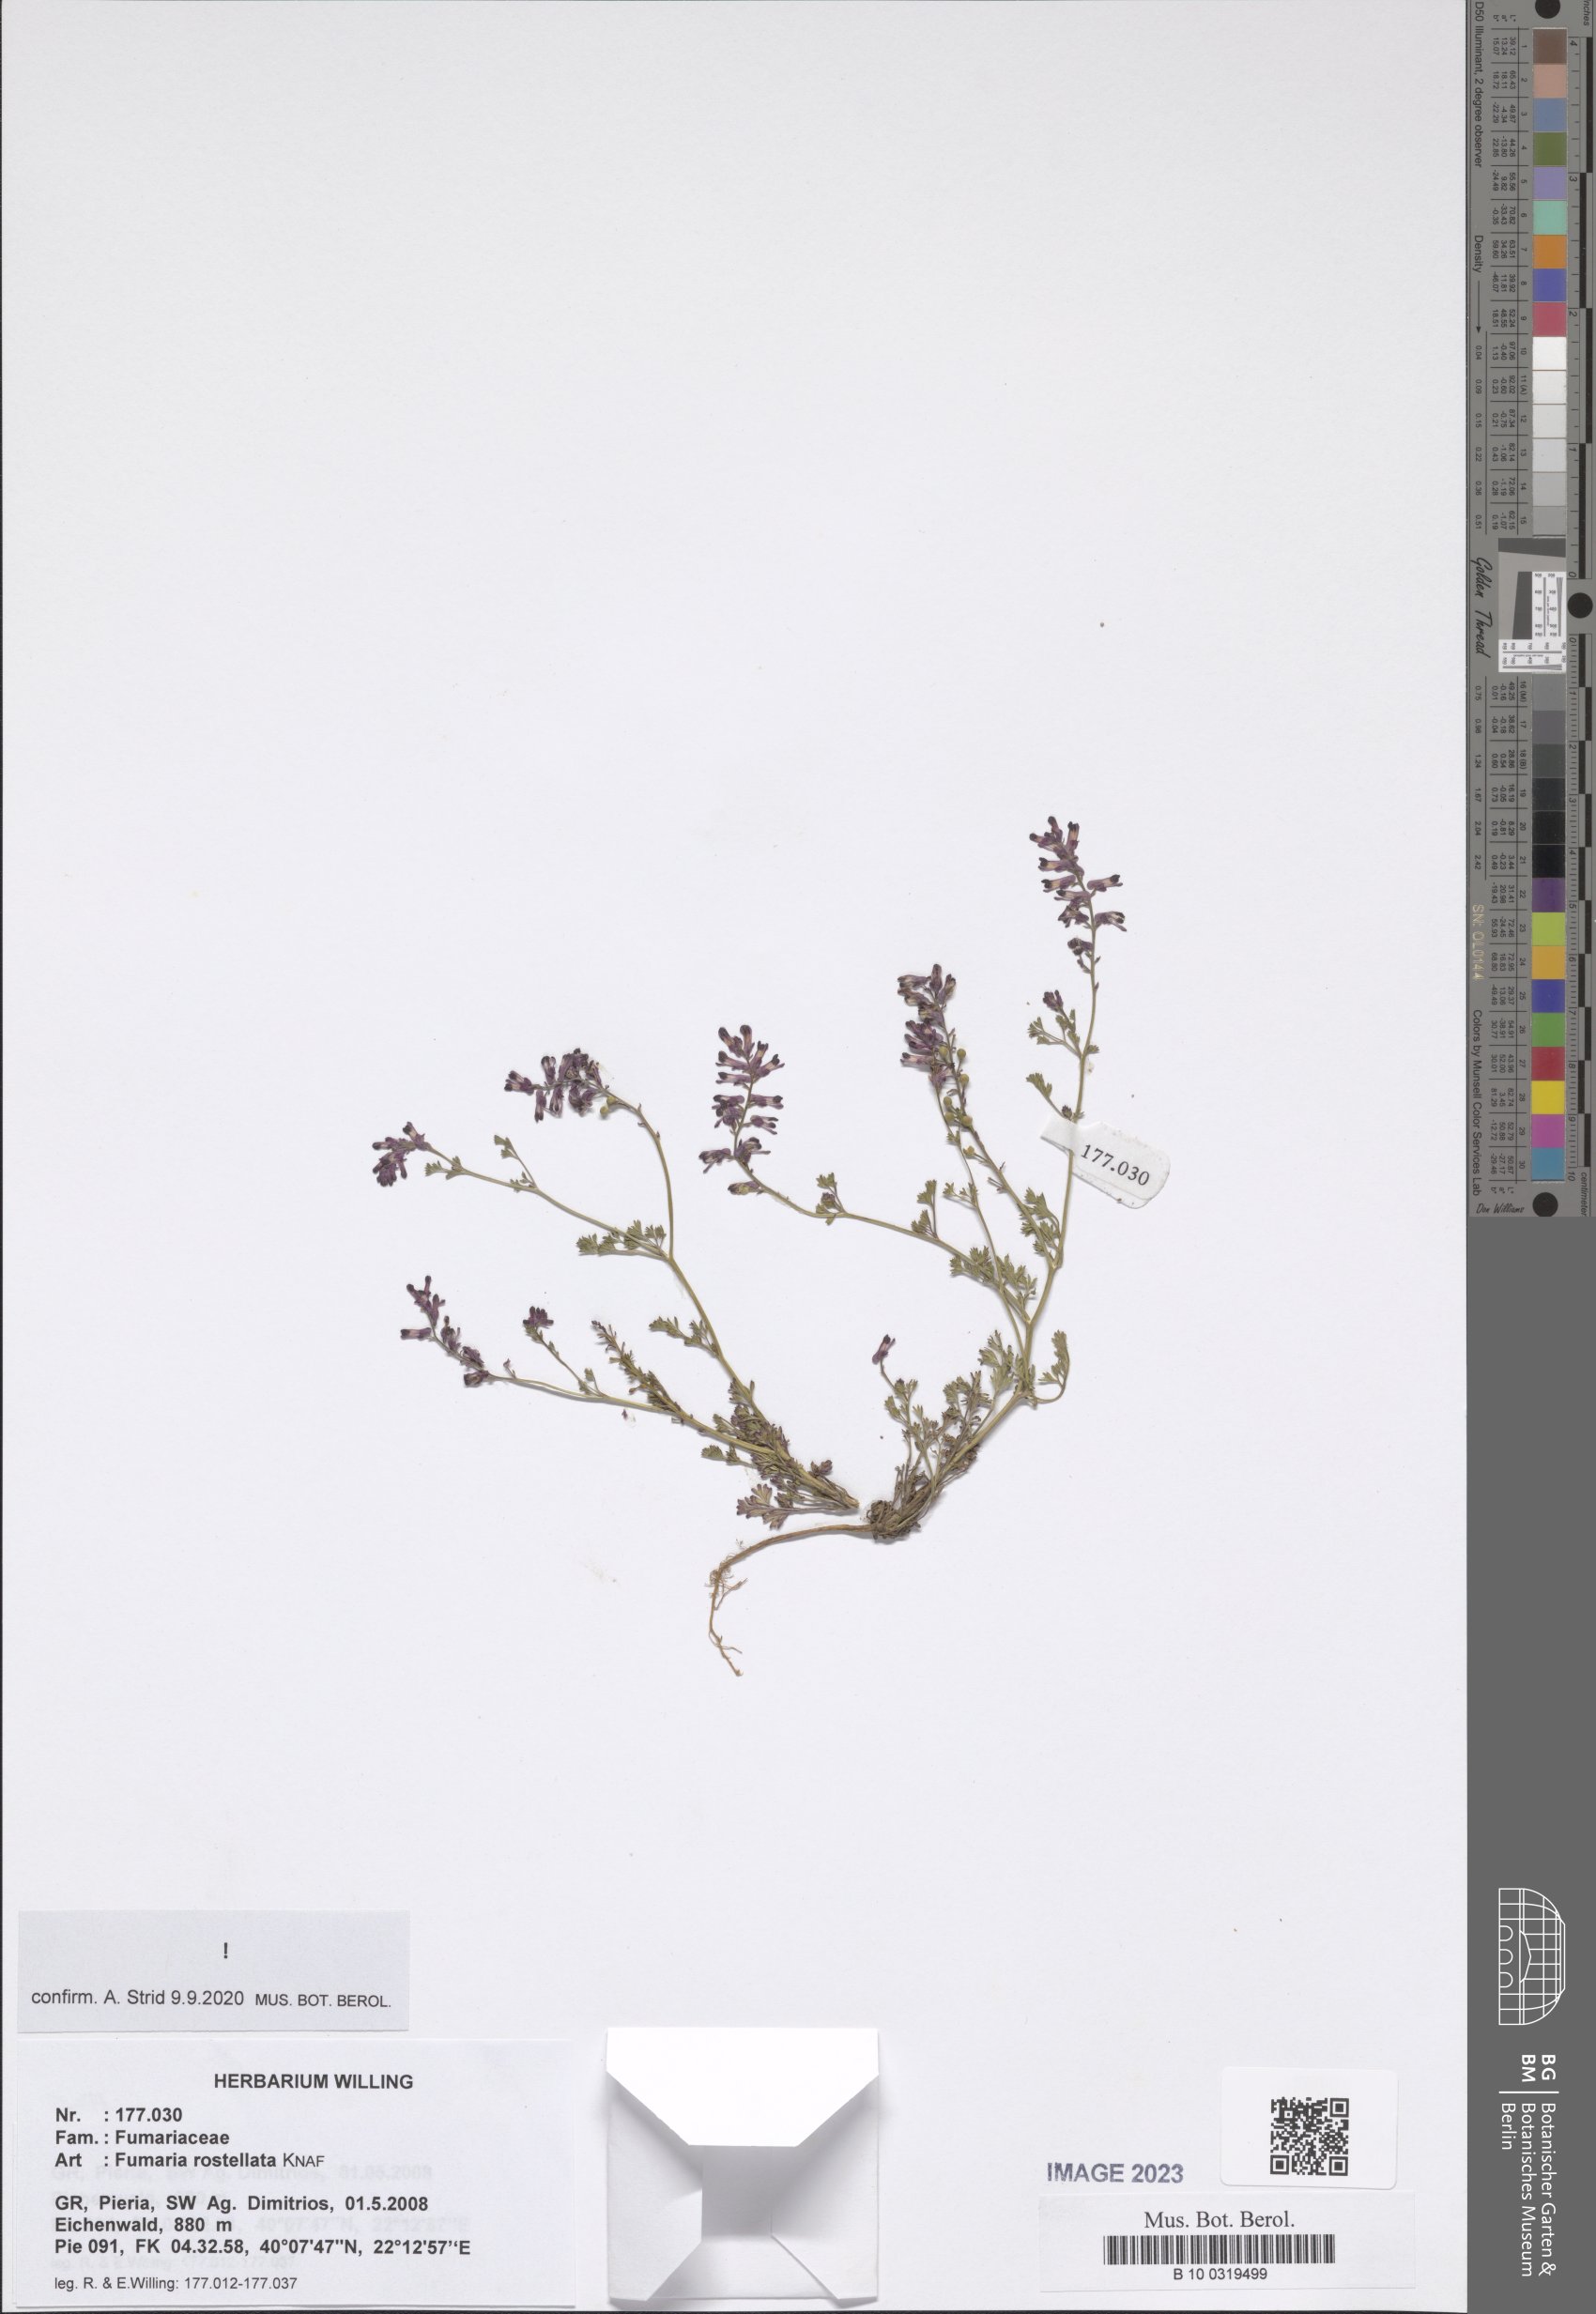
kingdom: Plantae
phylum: Tracheophyta
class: Magnoliopsida
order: Ranunculales
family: Papaveraceae
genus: Fumaria
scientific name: Fumaria rostellata
